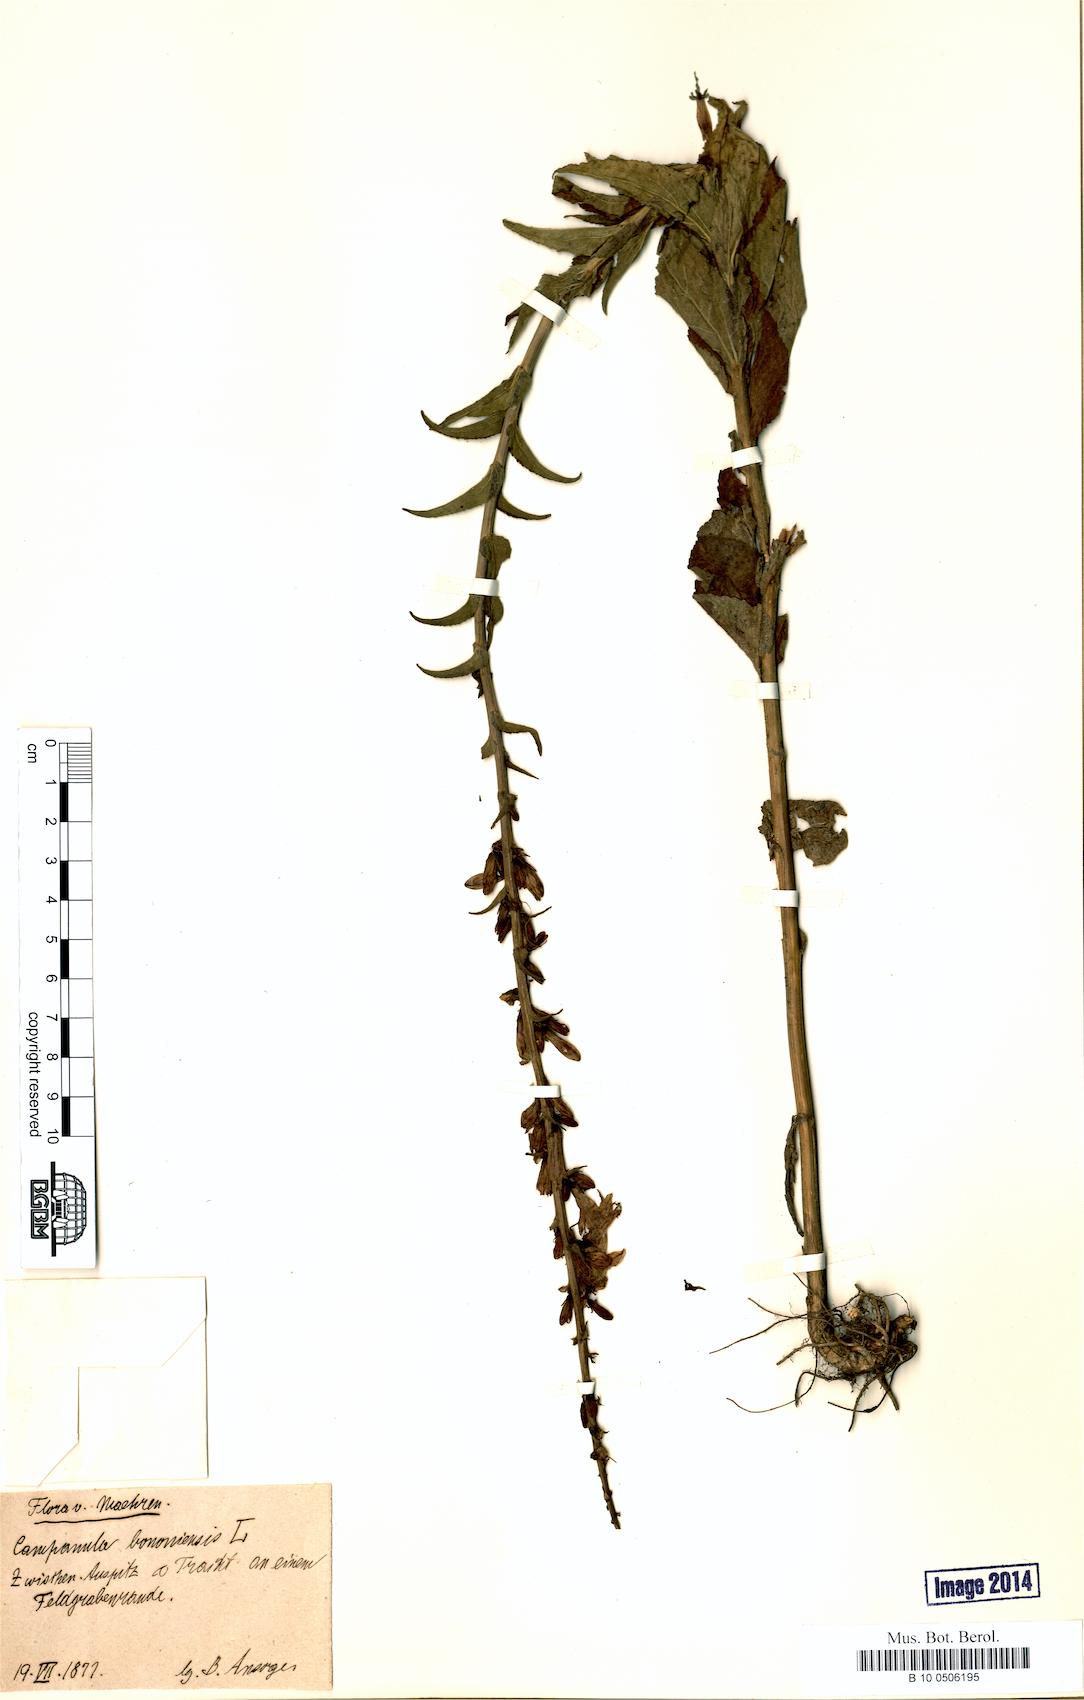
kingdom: Plantae
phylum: Tracheophyta
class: Magnoliopsida
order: Asterales
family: Campanulaceae
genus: Campanula
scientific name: Campanula bononiensis
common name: Pale bellflower
